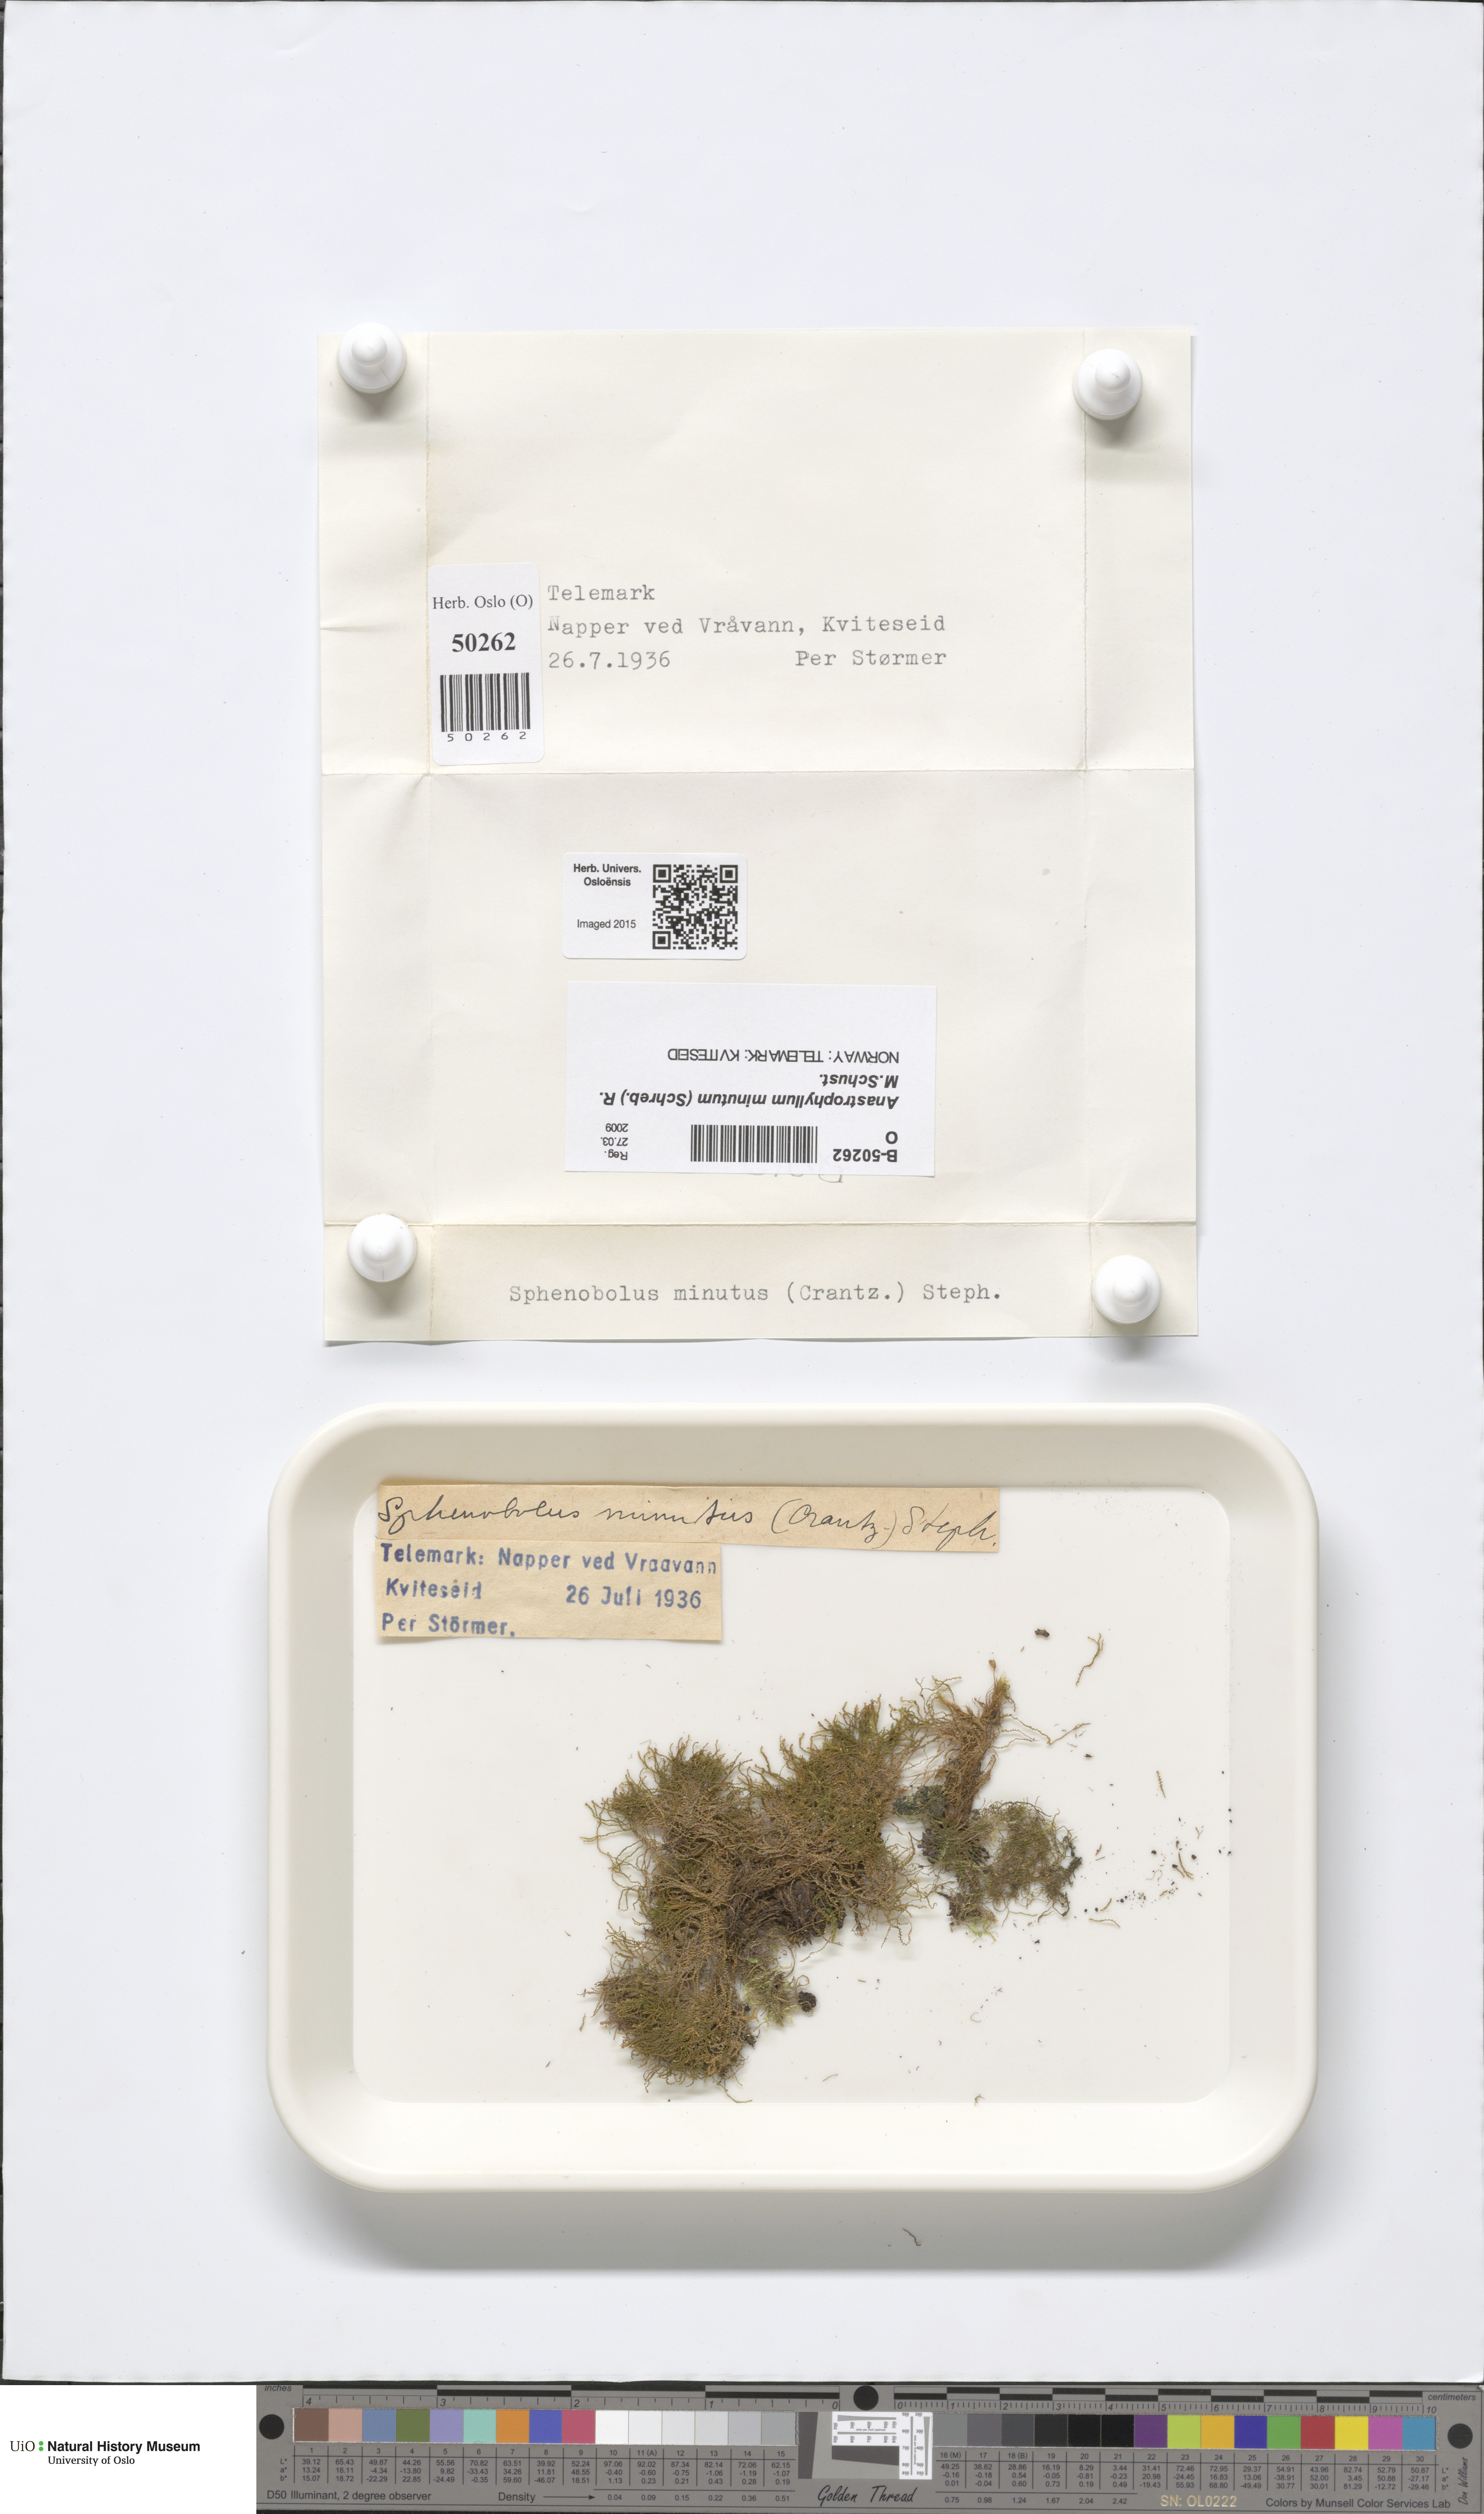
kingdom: Plantae
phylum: Marchantiophyta
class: Jungermanniopsida
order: Jungermanniales
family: Anastrophyllaceae
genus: Sphenolobus
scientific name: Sphenolobus minutus
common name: Comb notchwort
